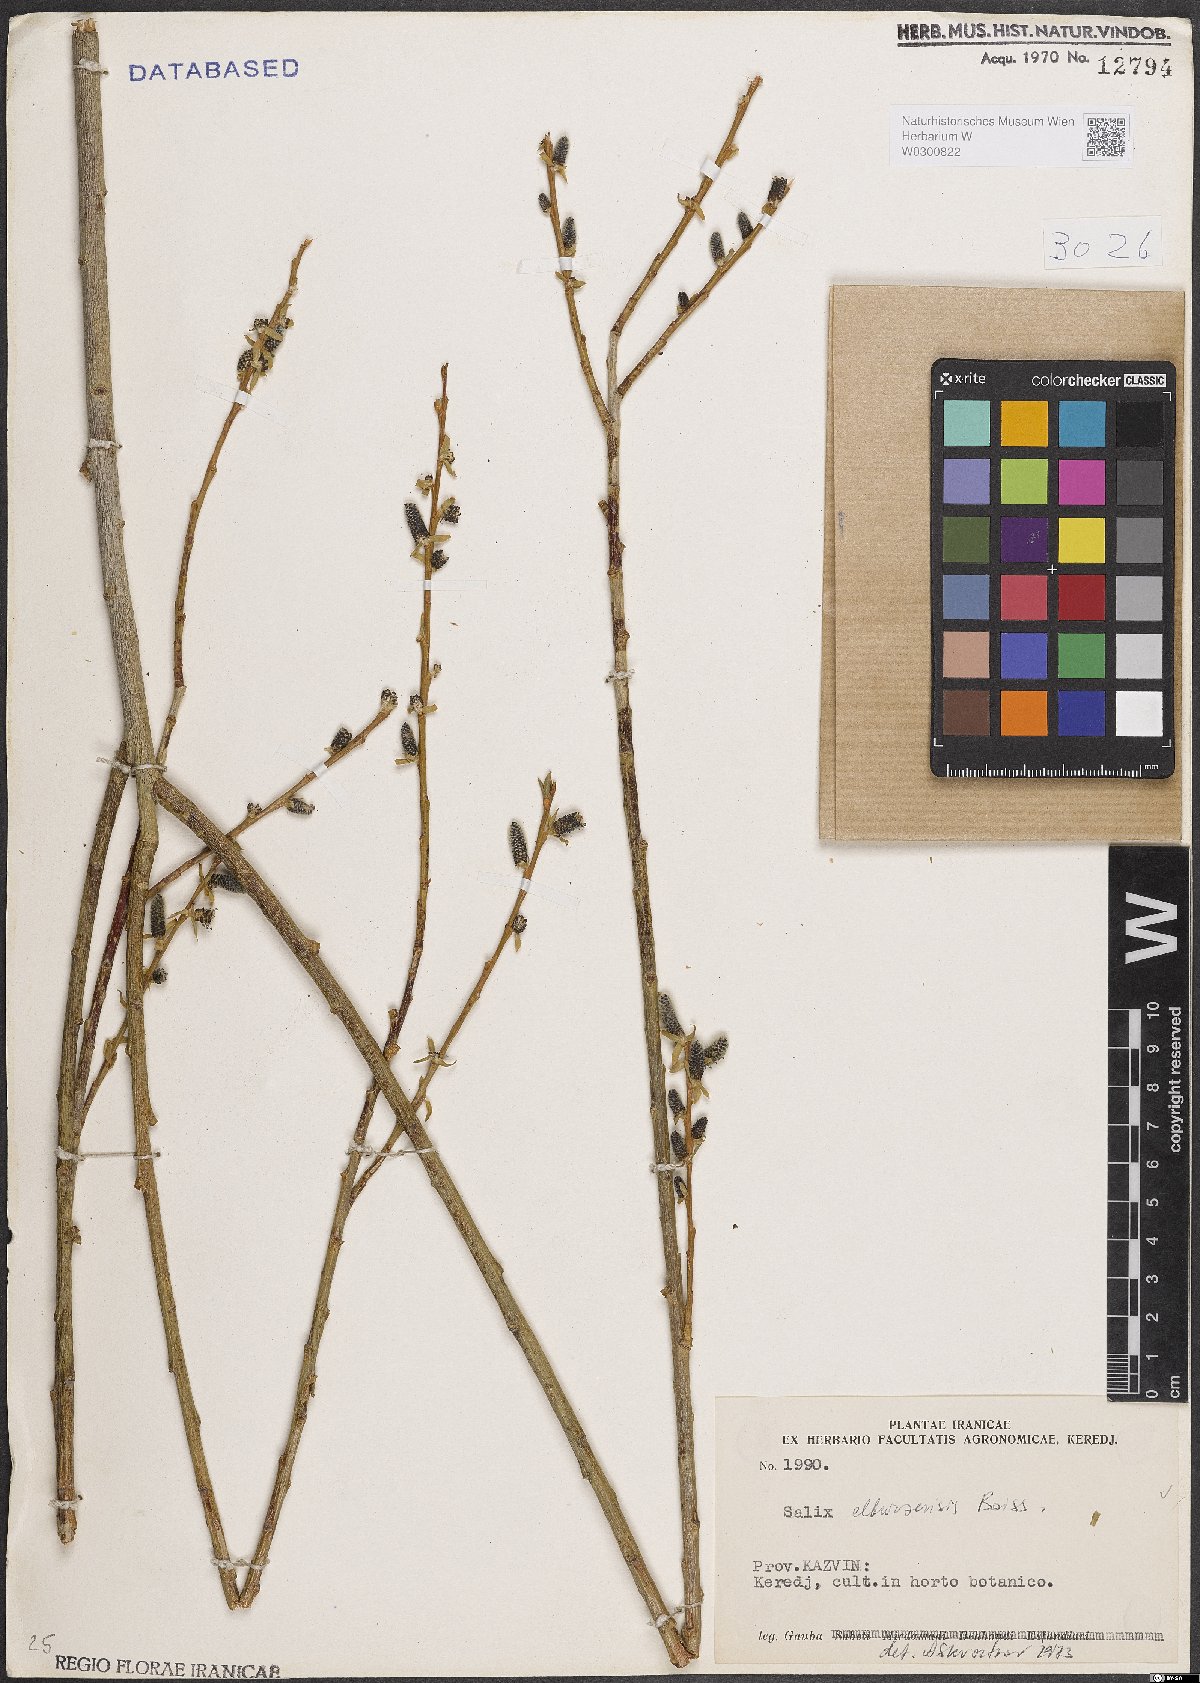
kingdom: Plantae
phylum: Tracheophyta
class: Magnoliopsida
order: Malpighiales
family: Salicaceae
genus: Salix
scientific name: Salix elbursensis
